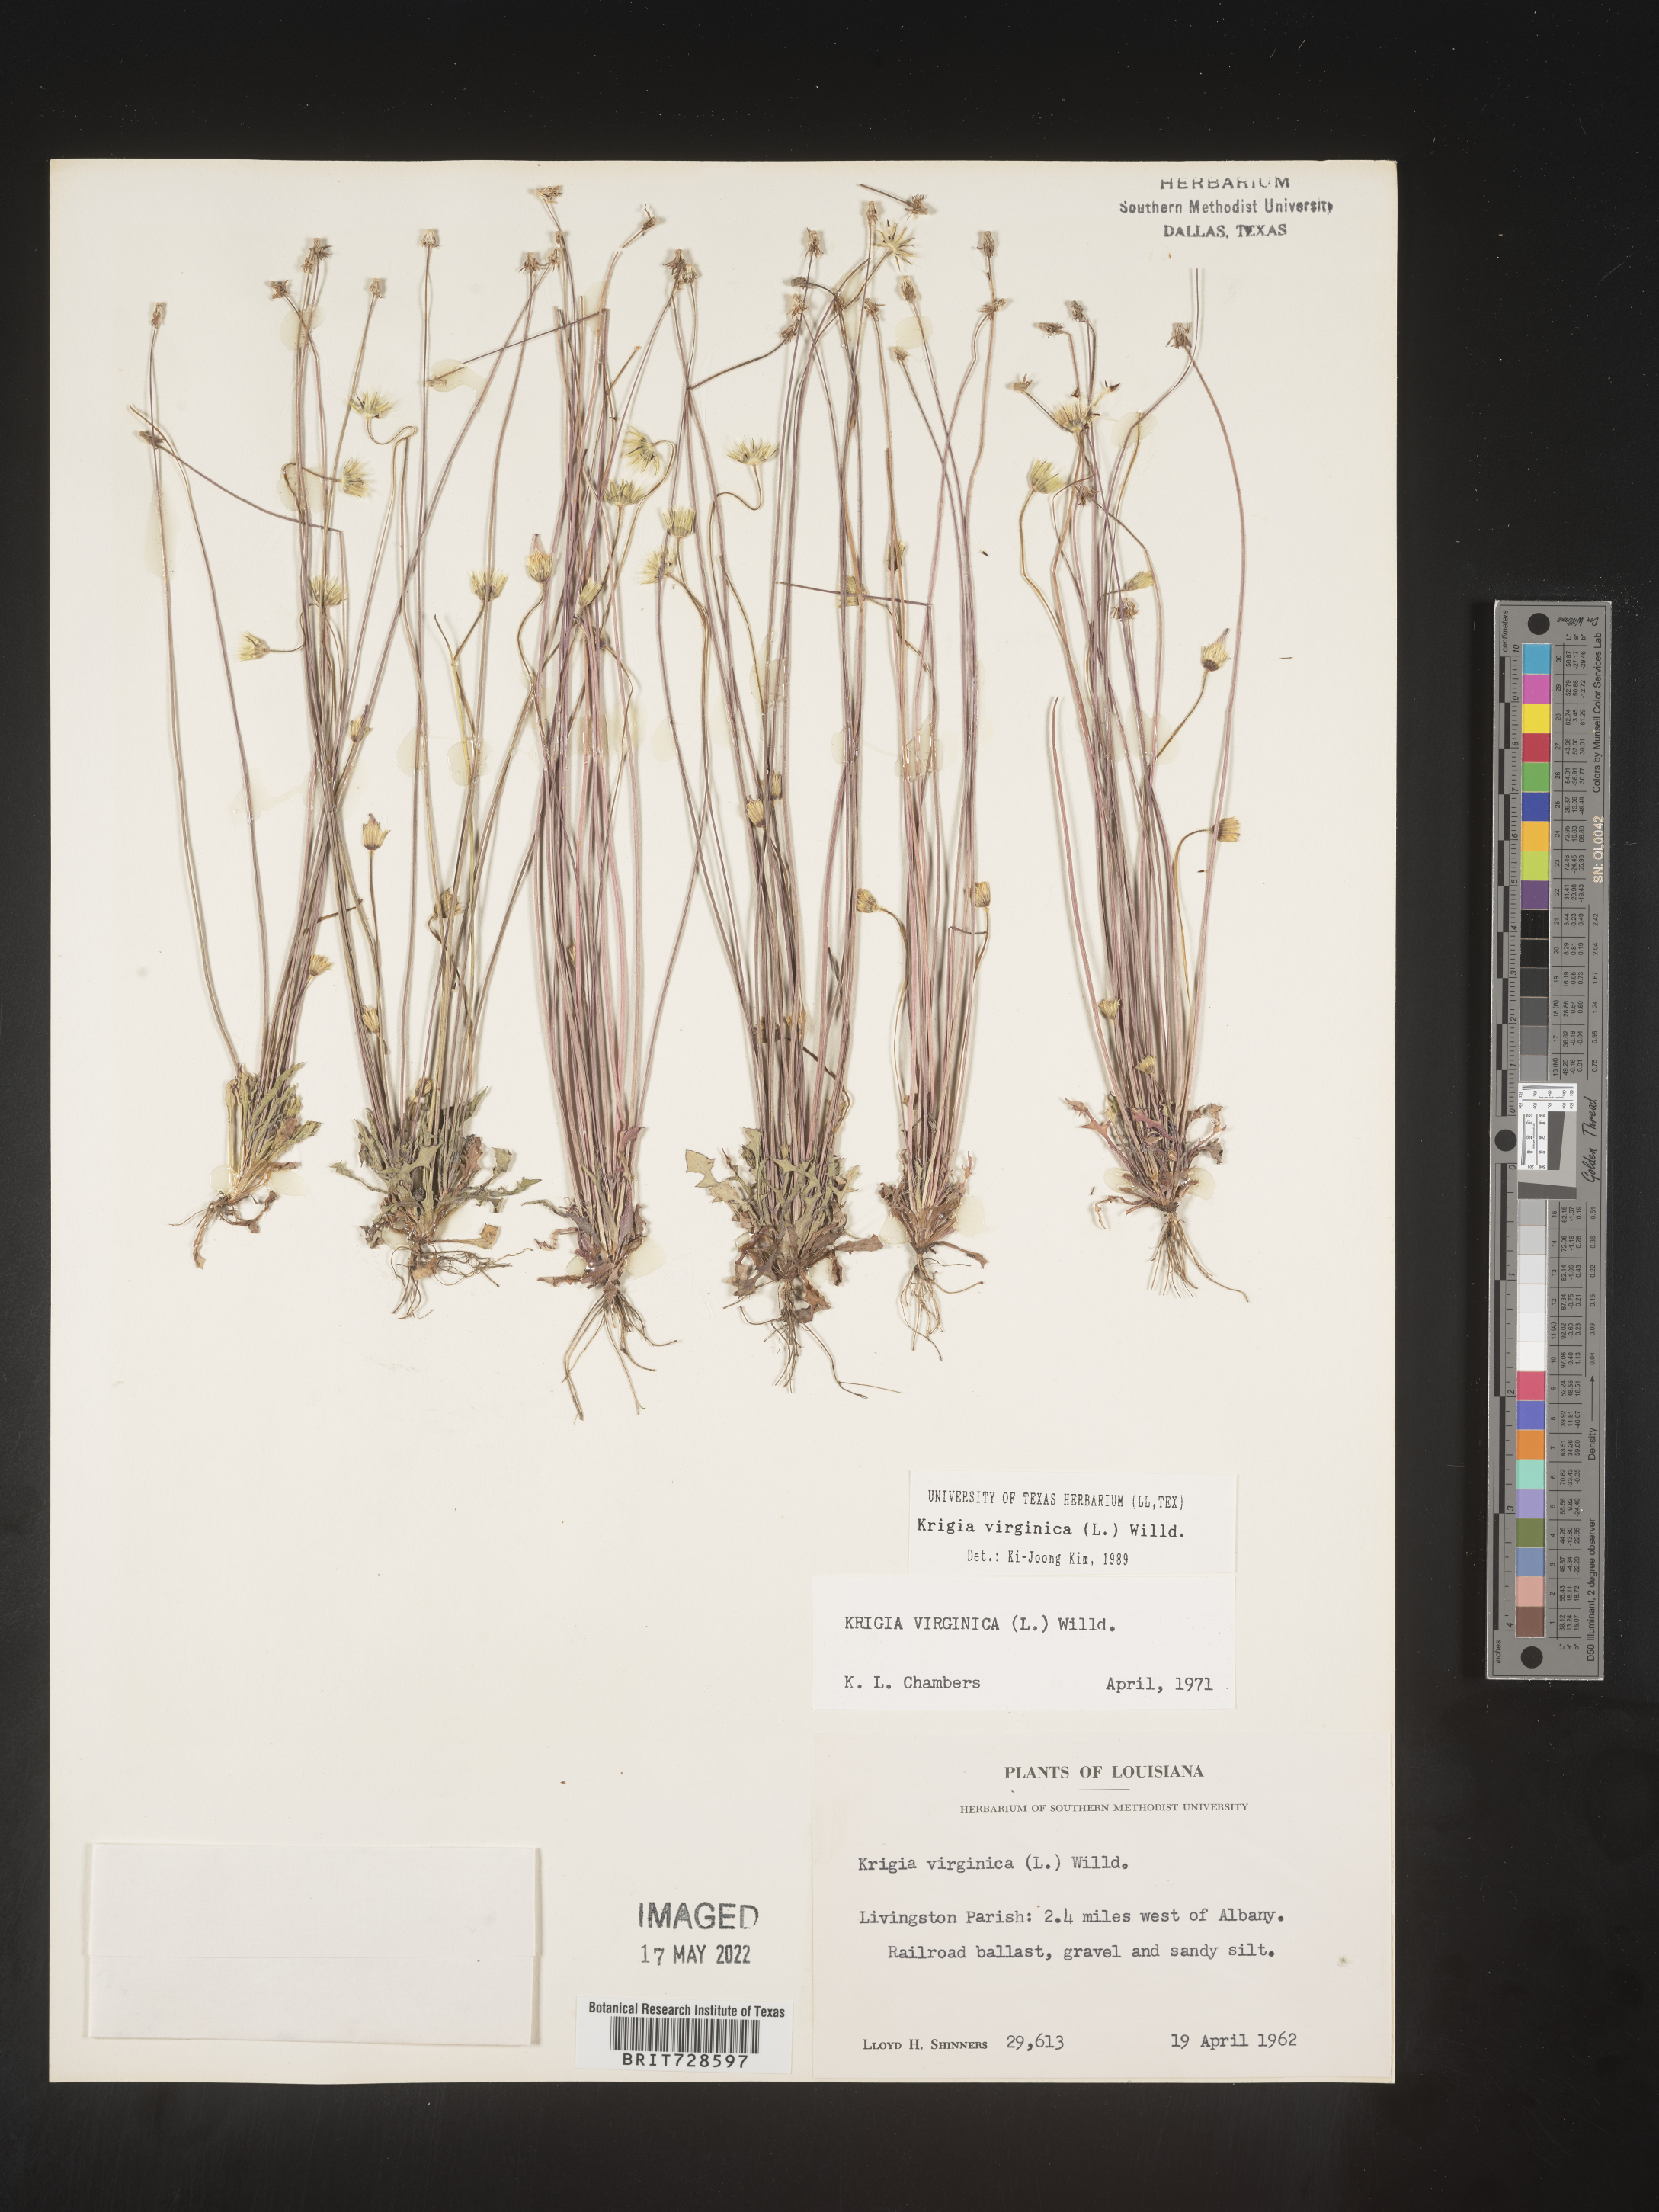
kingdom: Plantae
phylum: Tracheophyta
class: Magnoliopsida
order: Asterales
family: Asteraceae
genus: Krigia
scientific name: Krigia virginica
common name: Virginia dwarf-dandelion
